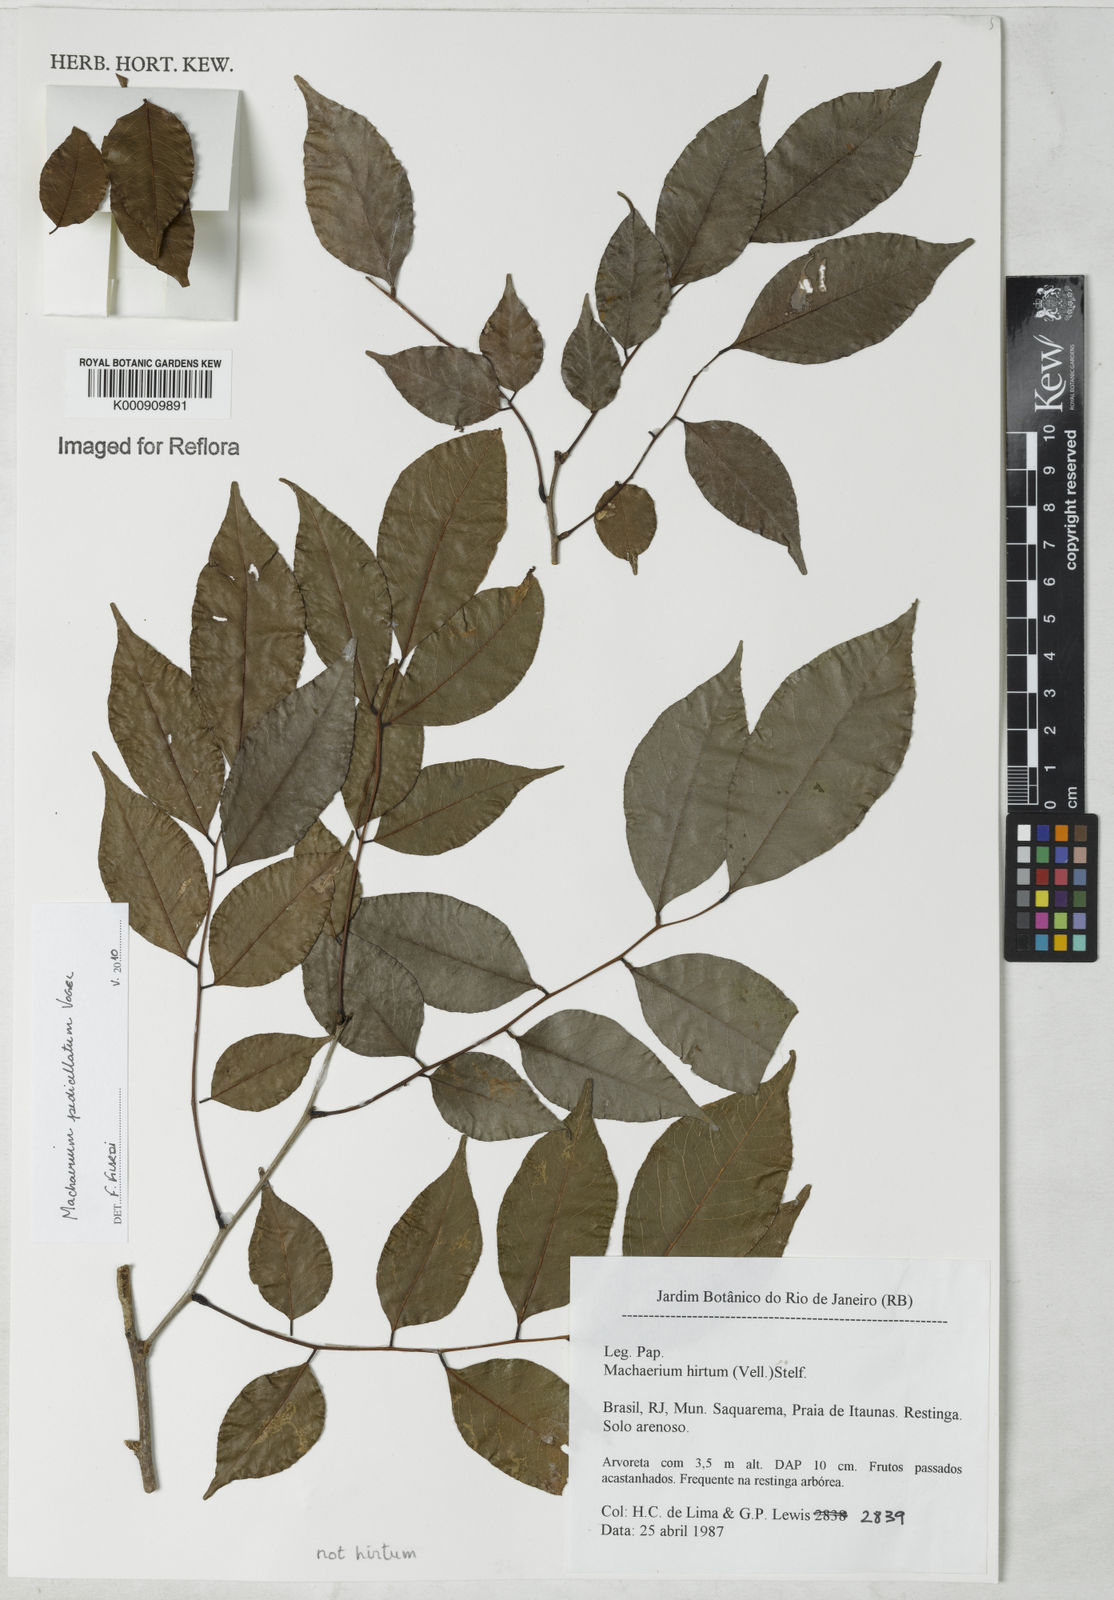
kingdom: Plantae
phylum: Tracheophyta
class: Magnoliopsida
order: Fabales
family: Fabaceae
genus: Machaerium
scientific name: Machaerium pedicellatum
